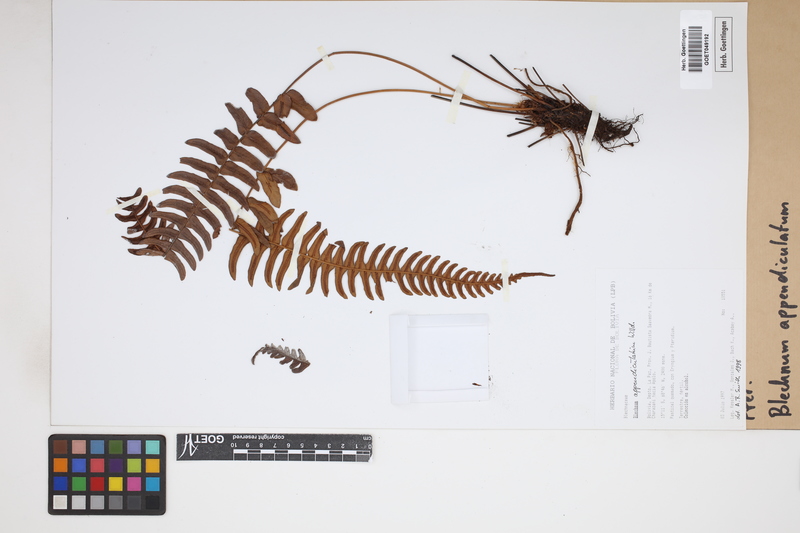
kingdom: Plantae
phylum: Tracheophyta
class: Polypodiopsida
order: Polypodiales
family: Blechnaceae
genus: Blechnum
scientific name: Blechnum appendiculatum
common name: Palm fern
